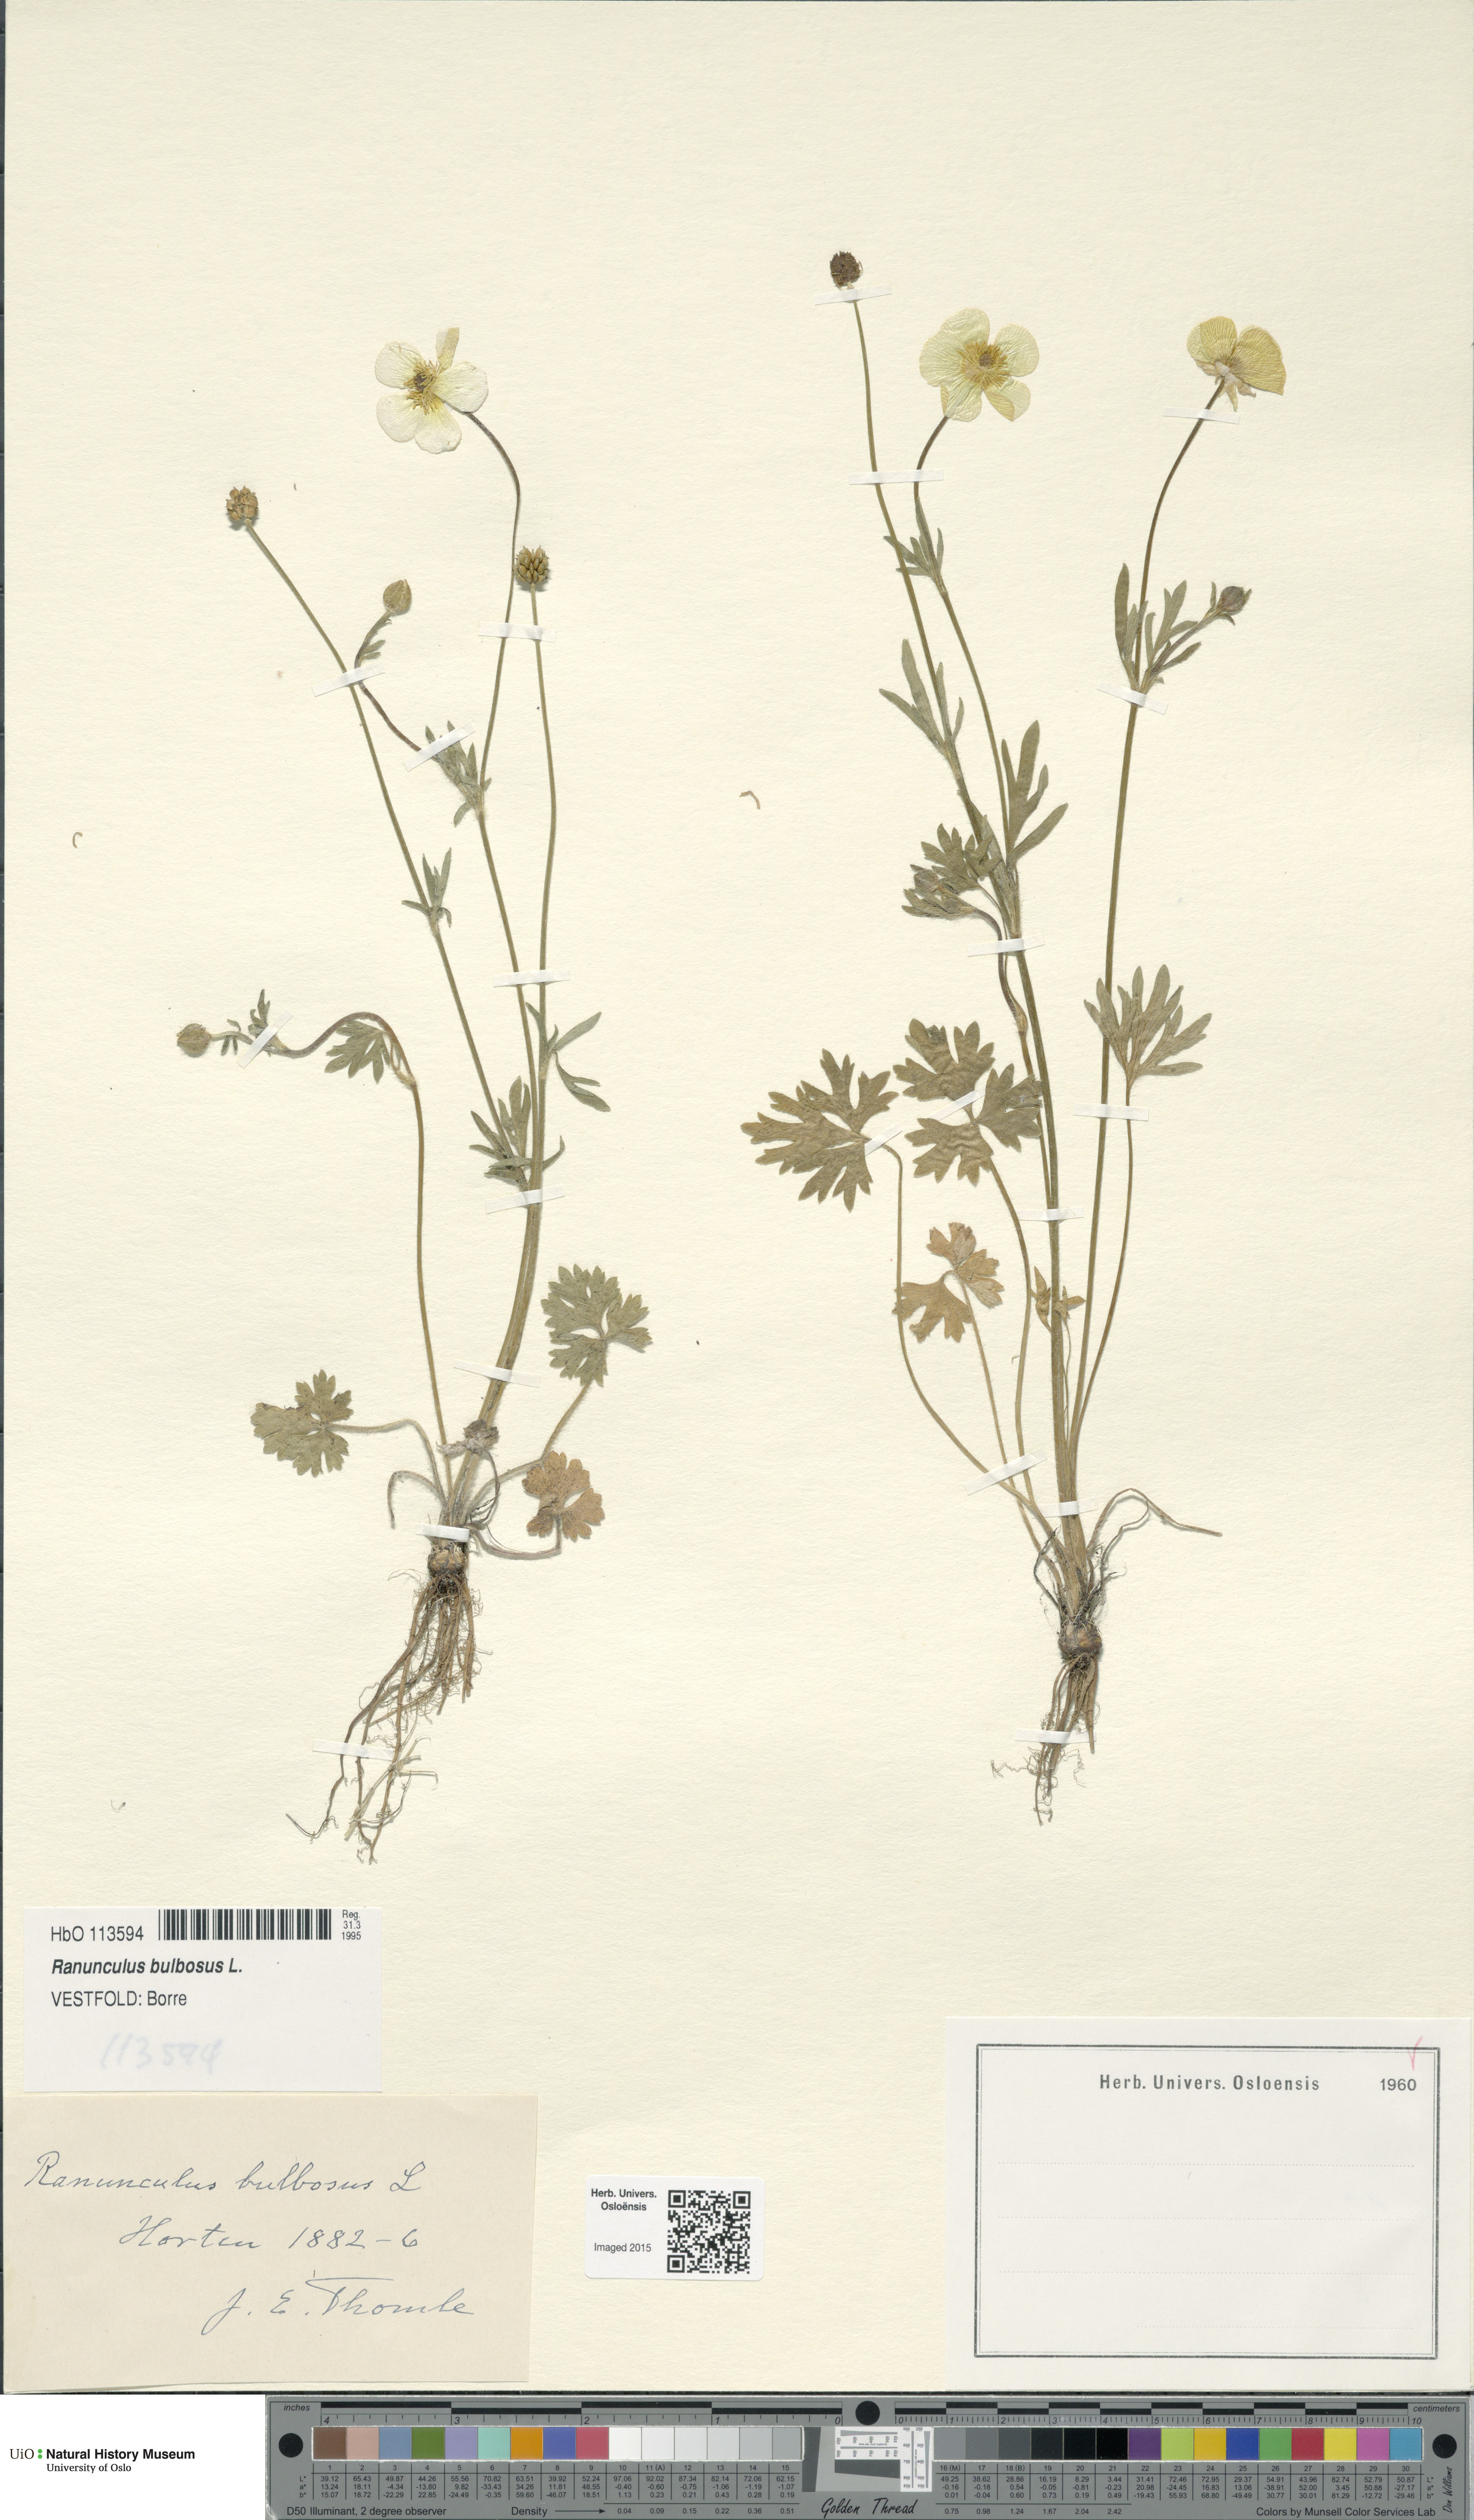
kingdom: Plantae
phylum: Tracheophyta
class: Magnoliopsida
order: Ranunculales
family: Ranunculaceae
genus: Ranunculus
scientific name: Ranunculus bulbosus
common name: Bulbous buttercup
